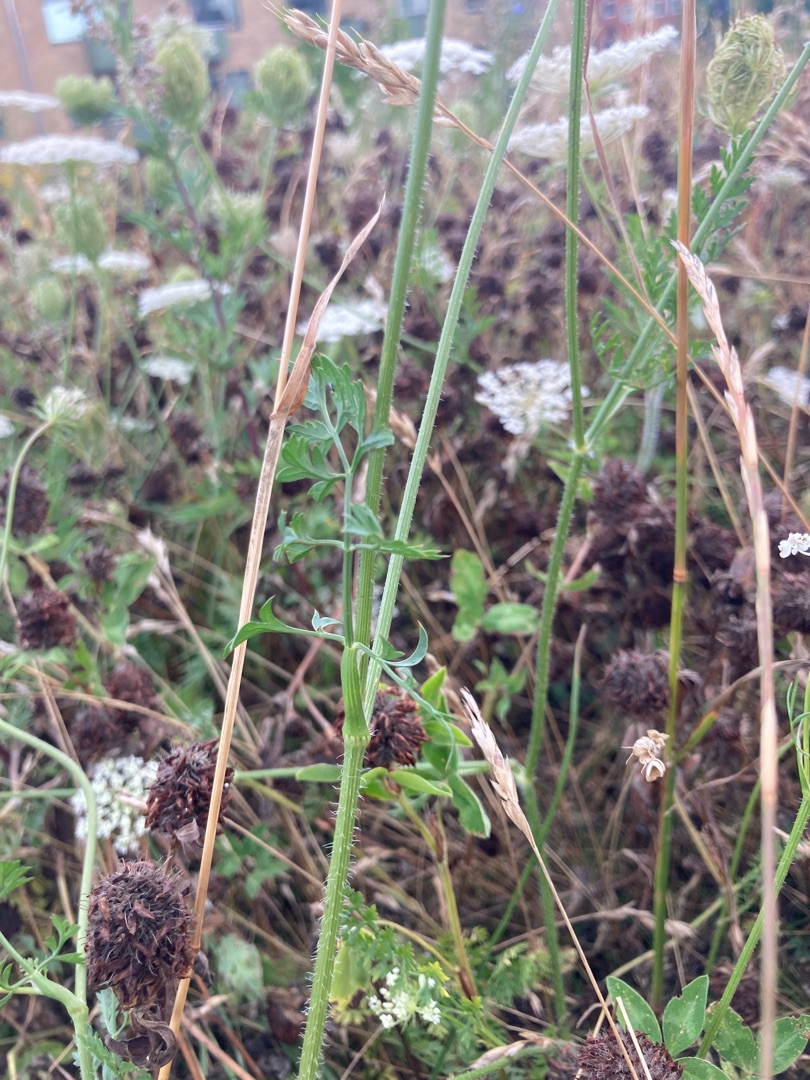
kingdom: Plantae
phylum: Tracheophyta
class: Magnoliopsida
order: Apiales
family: Apiaceae
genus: Daucus
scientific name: Daucus carota
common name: Vild gulerod
